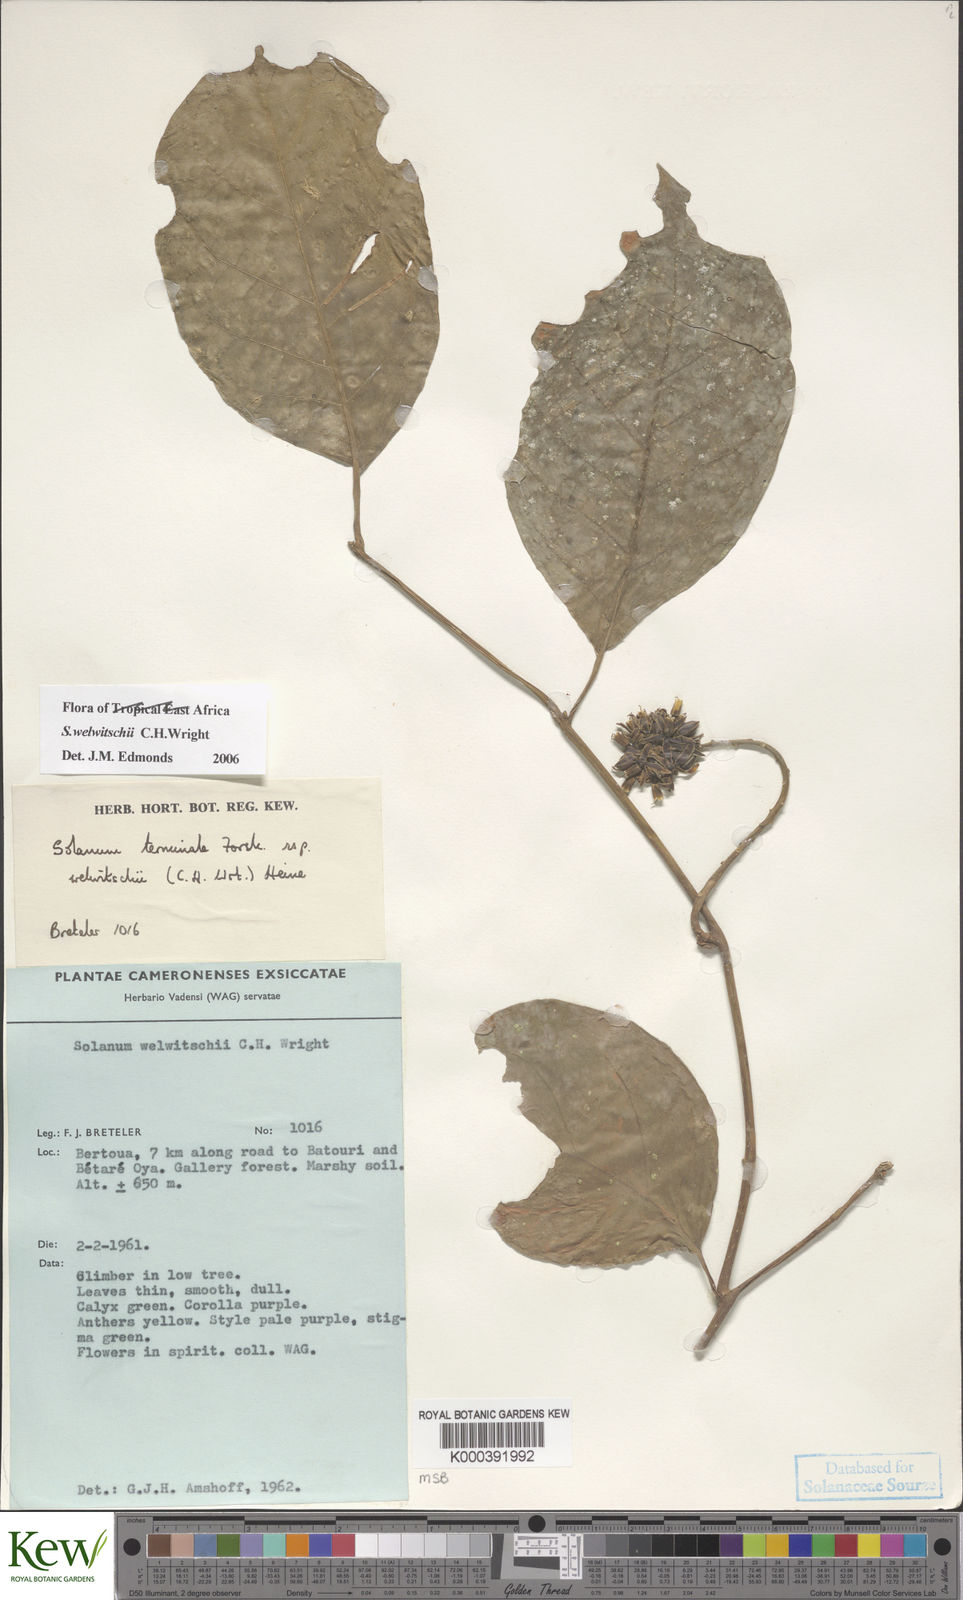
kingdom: Plantae
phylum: Tracheophyta
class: Magnoliopsida
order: Solanales
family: Solanaceae
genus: Solanum
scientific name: Solanum terminale
